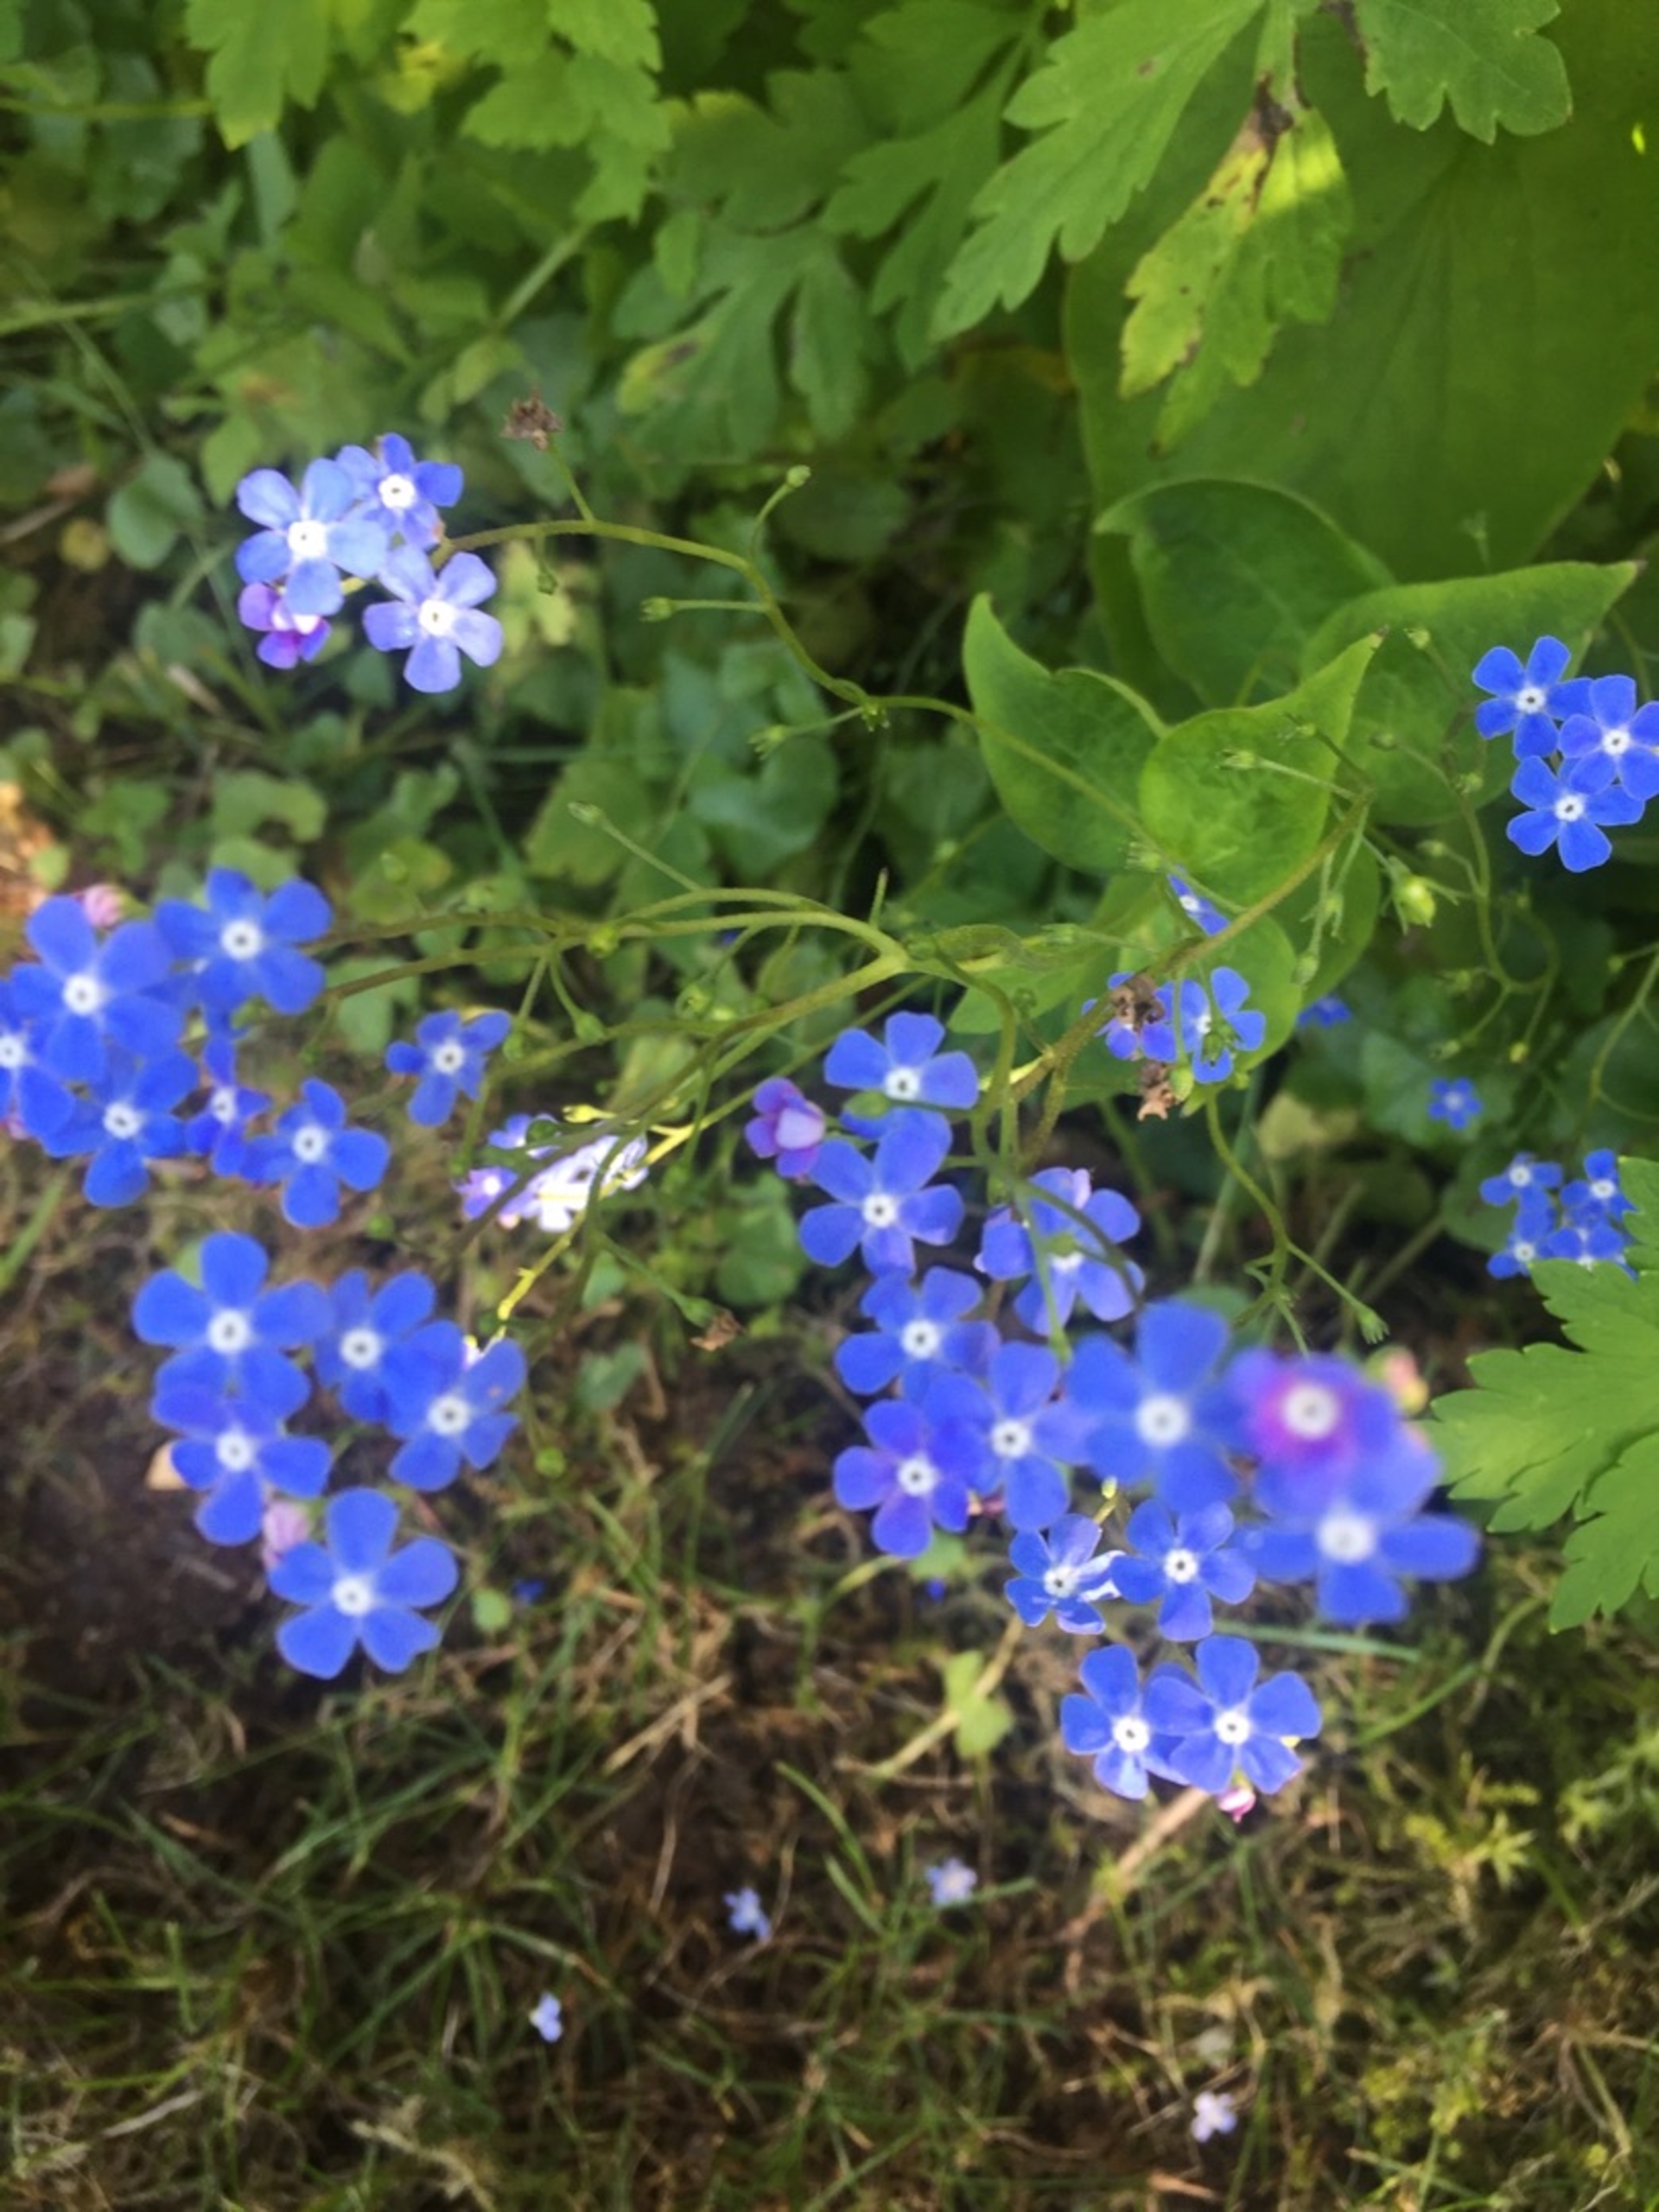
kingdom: Plantae
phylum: Tracheophyta
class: Magnoliopsida
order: Boraginales
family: Boraginaceae
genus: Brunnera
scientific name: Brunnera macrophylla
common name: Kærmindesøster
